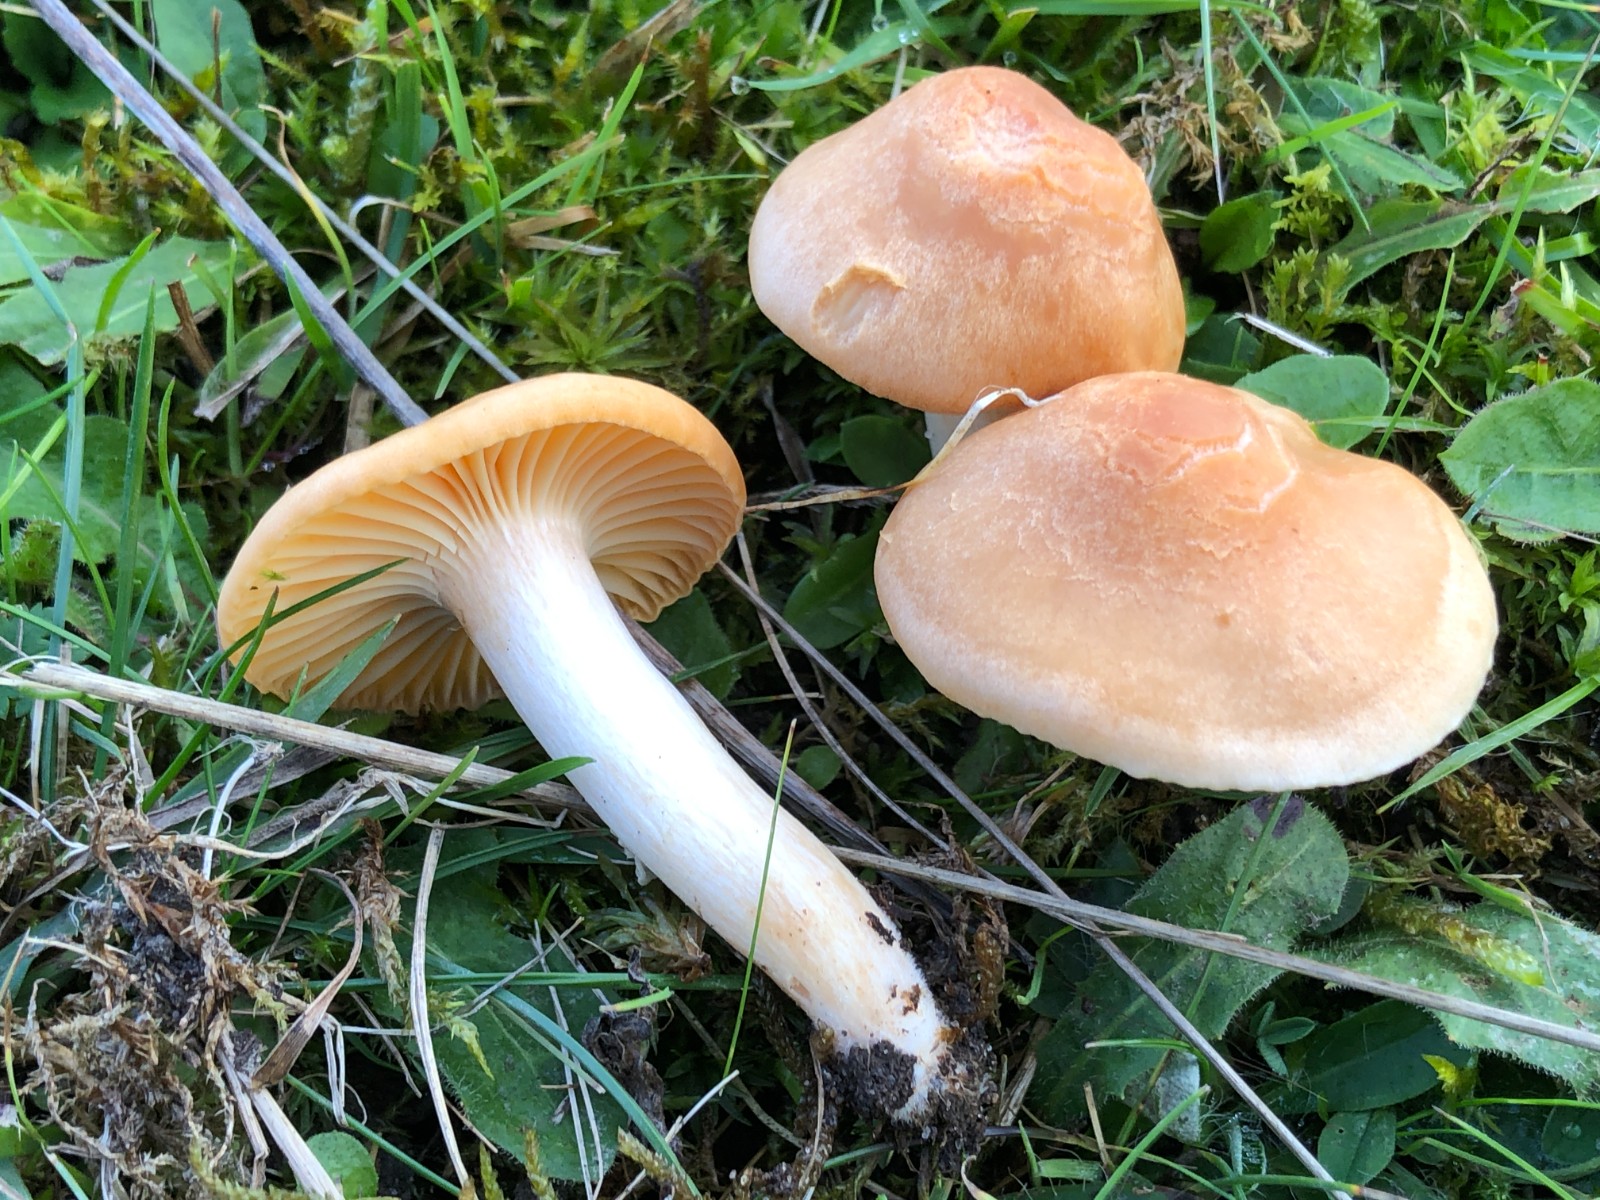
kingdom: Fungi
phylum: Basidiomycota
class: Agaricomycetes
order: Agaricales
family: Hygrophoraceae
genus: Cuphophyllus
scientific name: Cuphophyllus pratensis
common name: eng-vokshat
